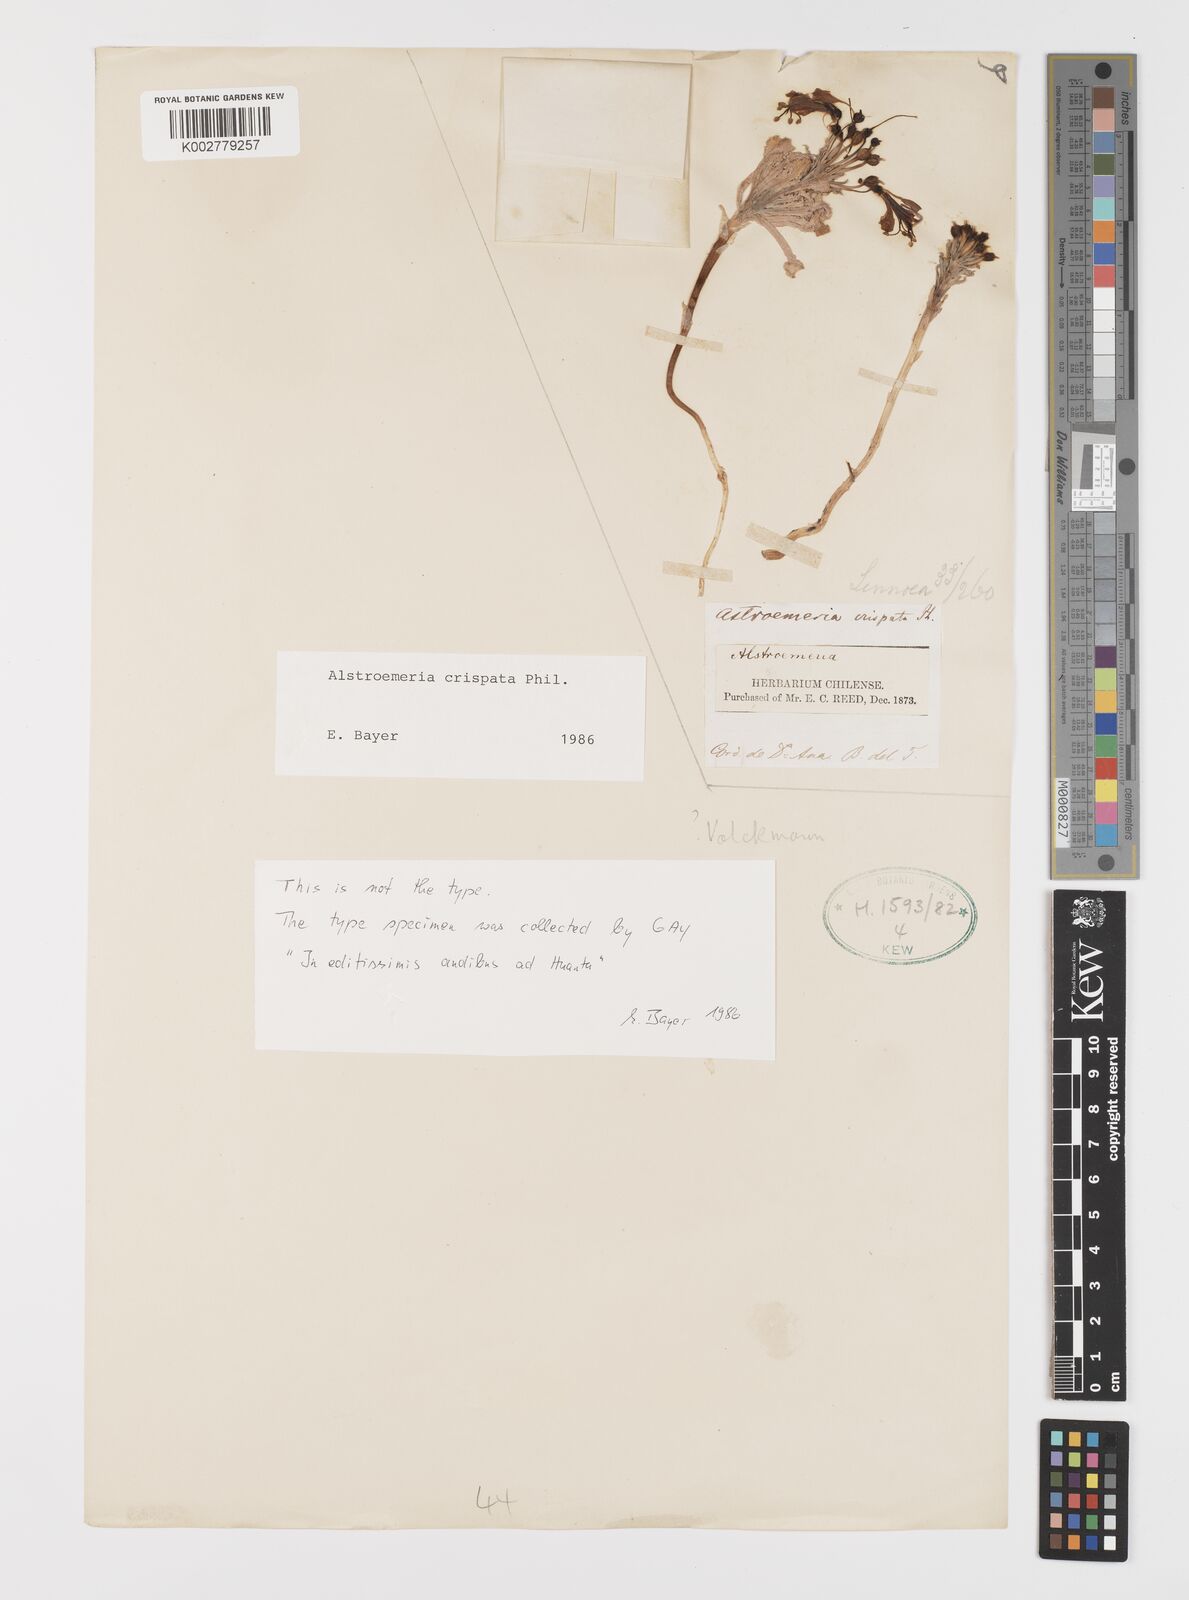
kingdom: Plantae
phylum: Tracheophyta
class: Liliopsida
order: Liliales
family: Alstroemeriaceae
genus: Alstroemeria
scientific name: Alstroemeria crispata
